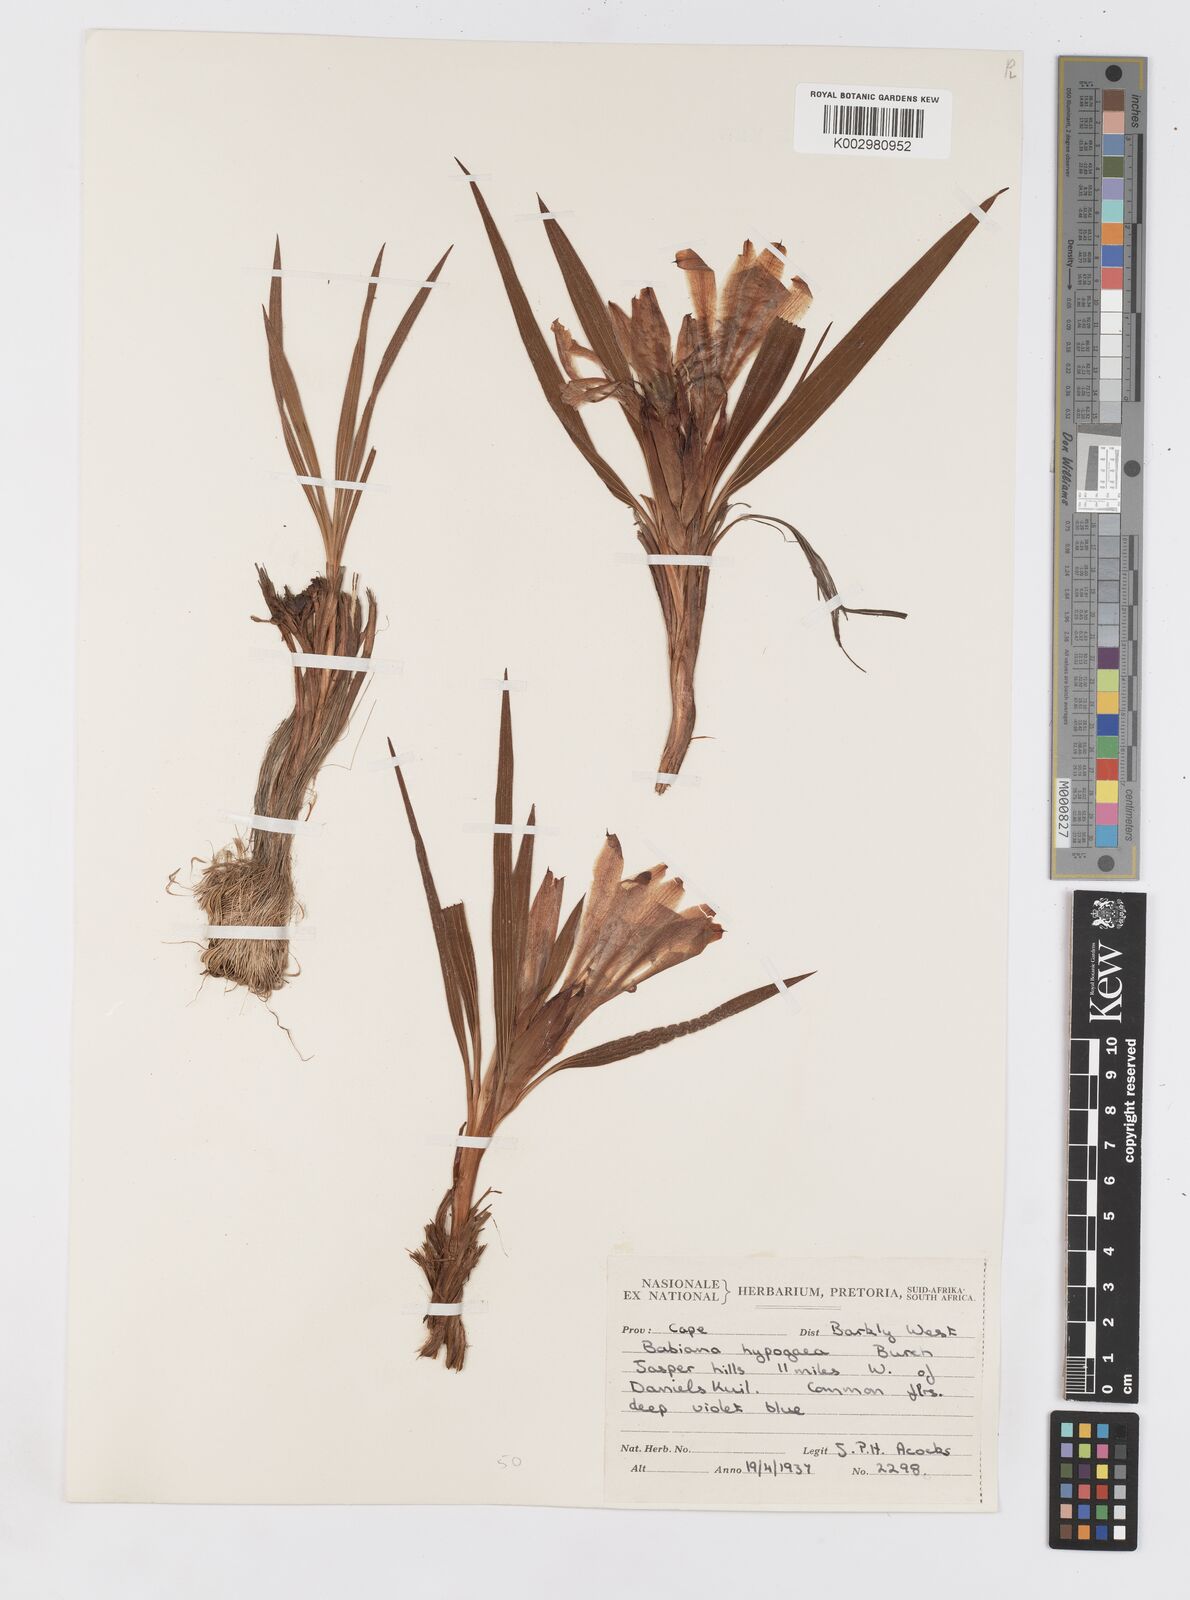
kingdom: Plantae
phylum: Tracheophyta
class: Liliopsida
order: Asparagales
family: Iridaceae
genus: Babiana
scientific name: Babiana bainesii
